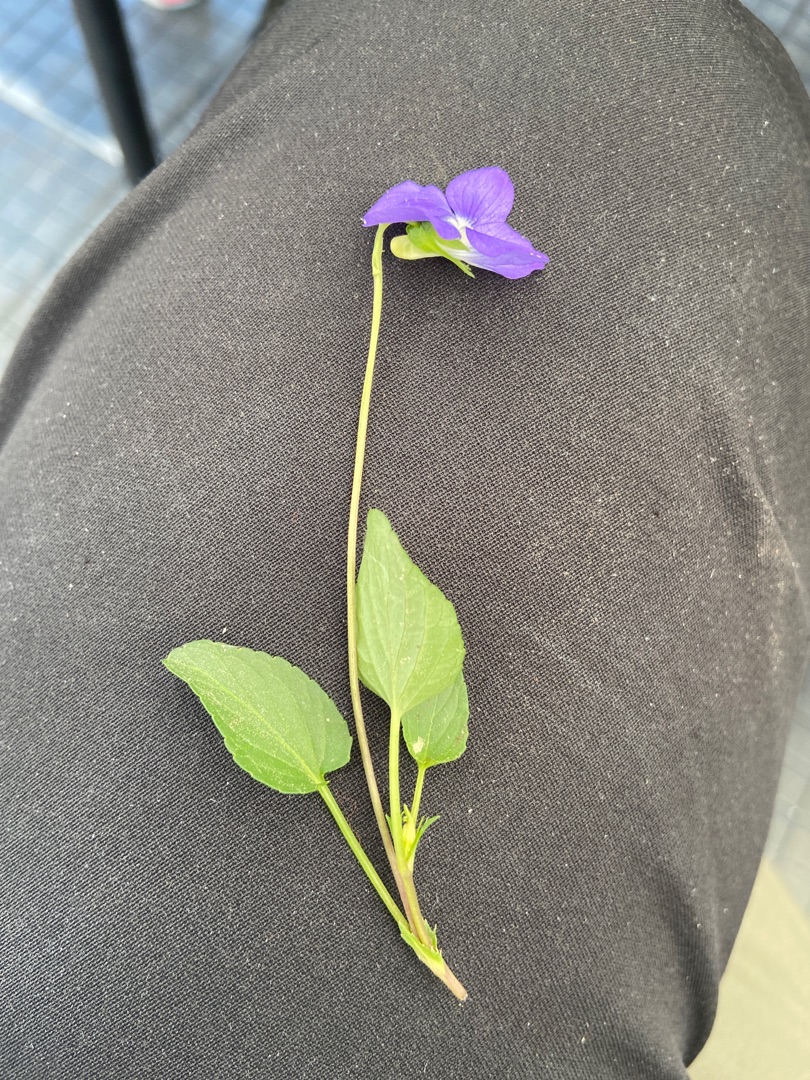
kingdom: Plantae
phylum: Tracheophyta
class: Magnoliopsida
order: Malpighiales
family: Violaceae
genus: Viola
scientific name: Viola canina
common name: Hunde-viol
